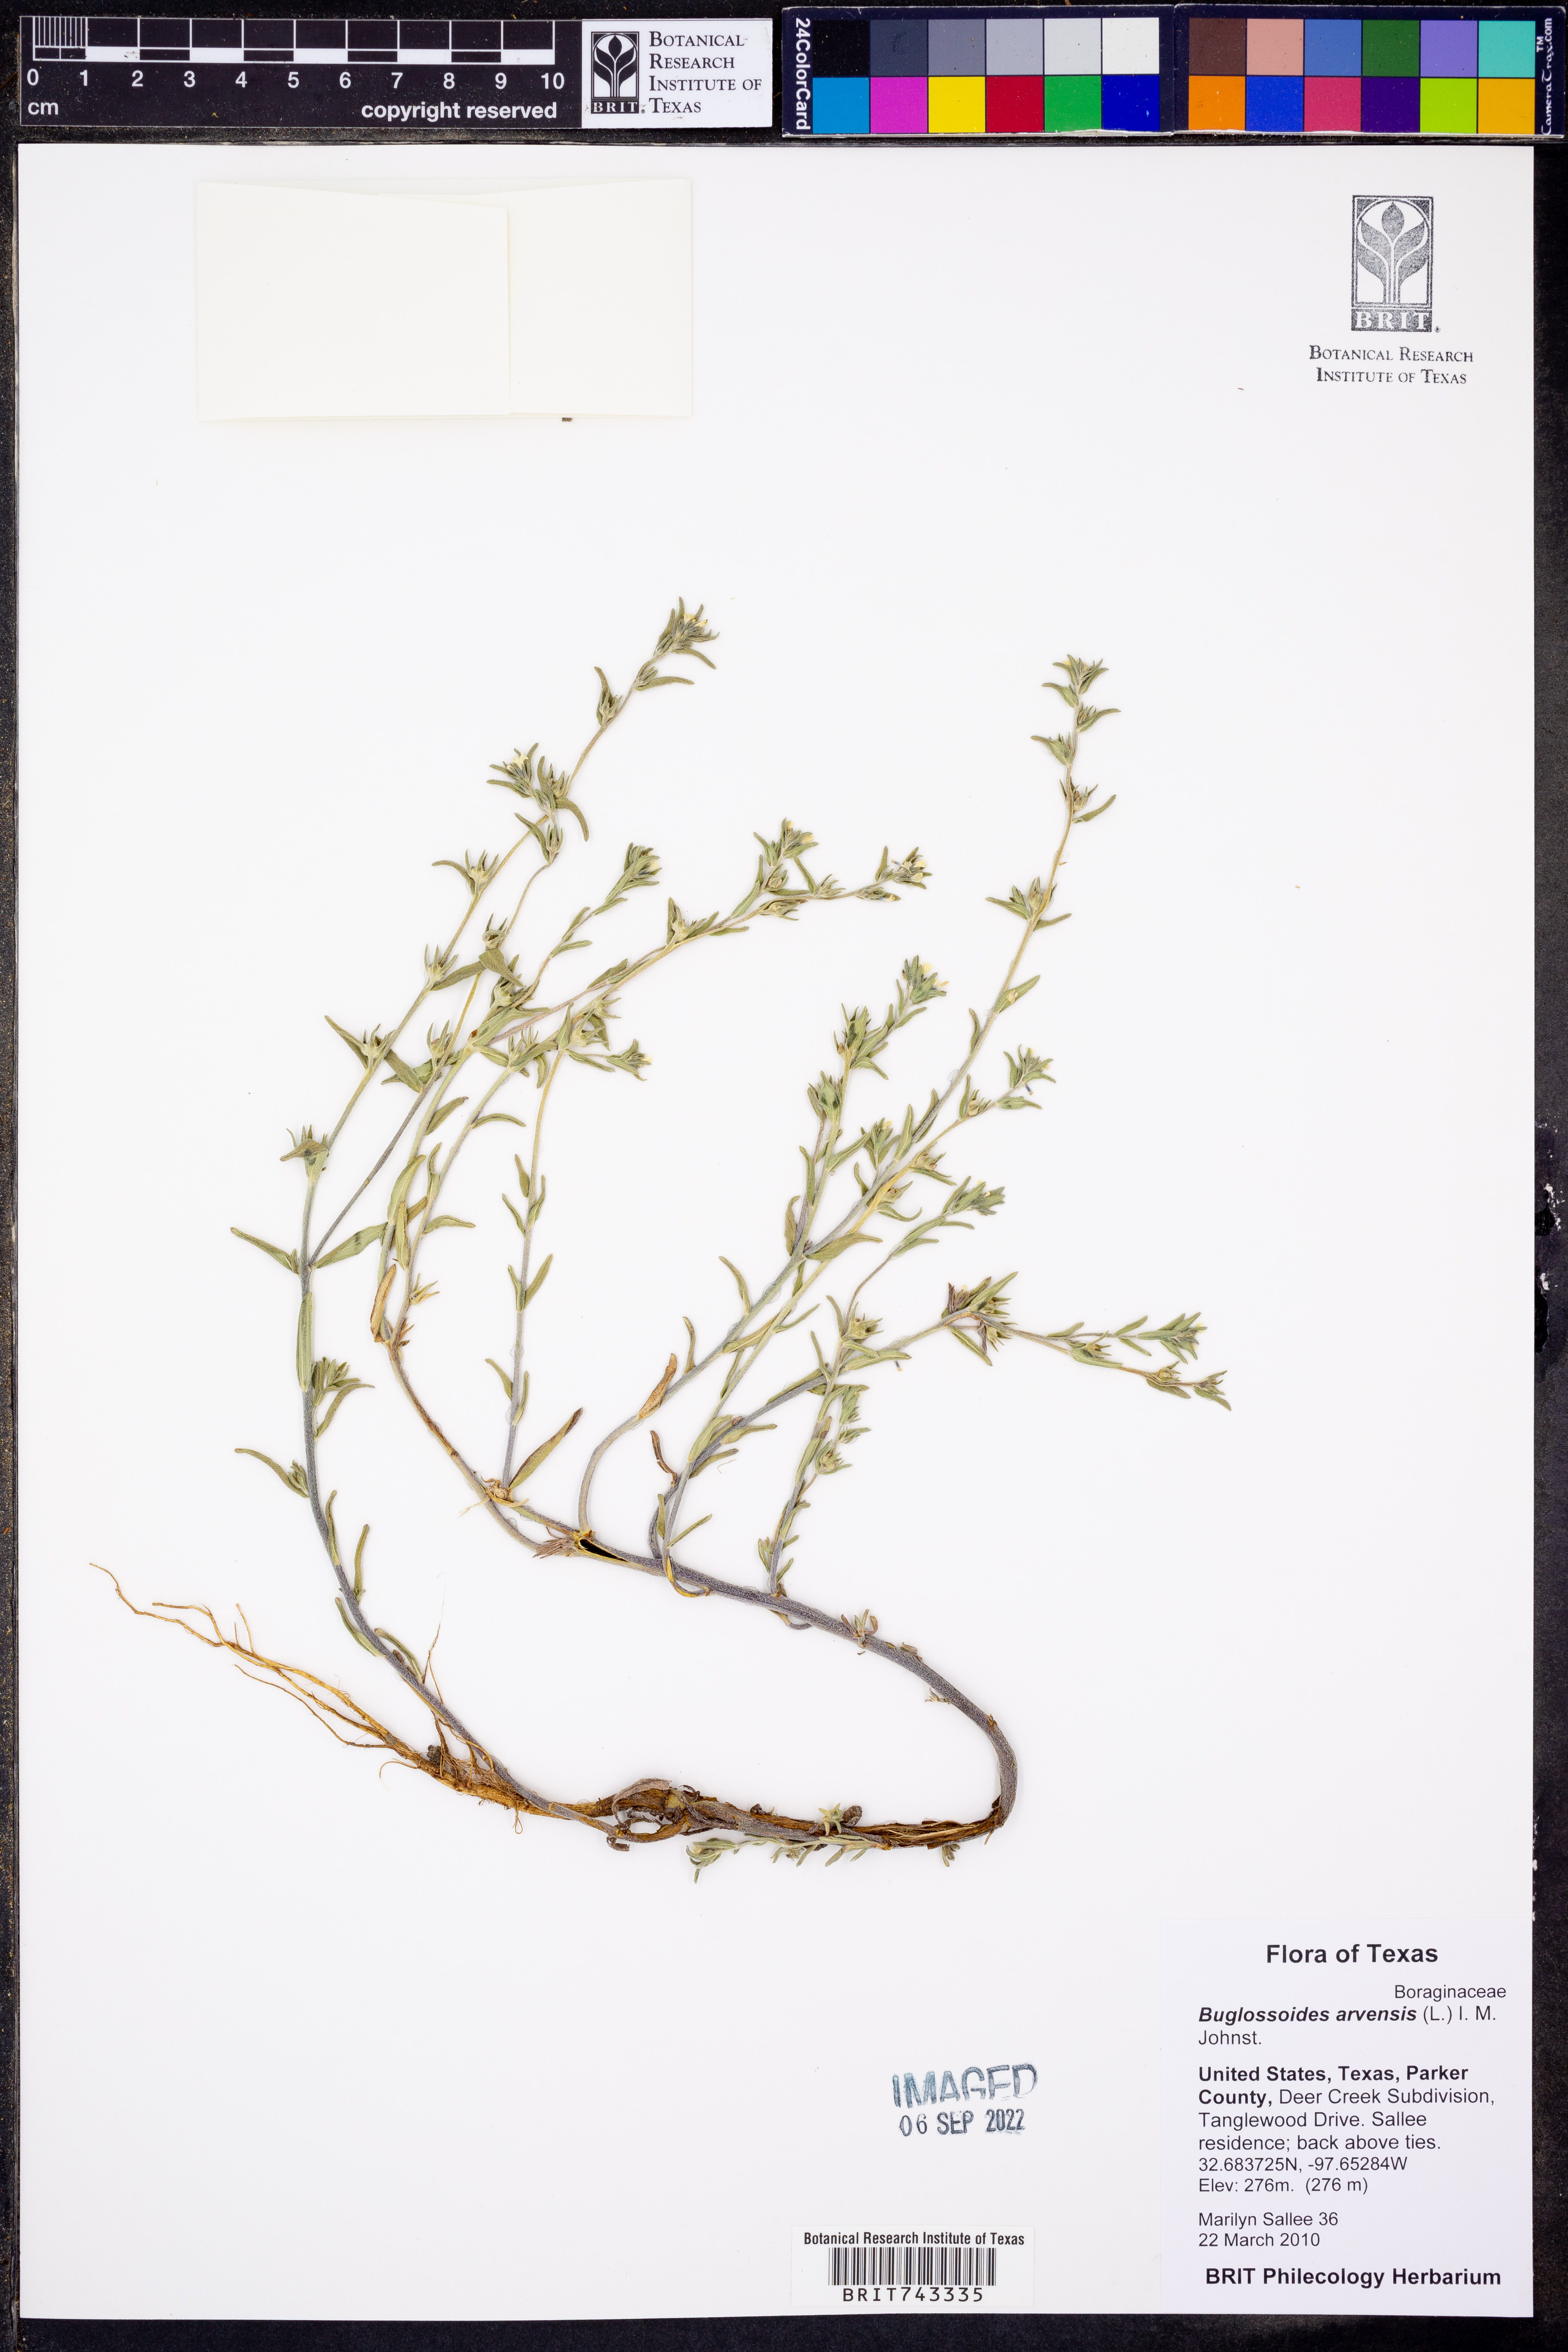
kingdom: Plantae
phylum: Tracheophyta
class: Magnoliopsida
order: Boraginales
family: Boraginaceae
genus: Buglossoides
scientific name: Buglossoides arvensis
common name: Corn gromwell
